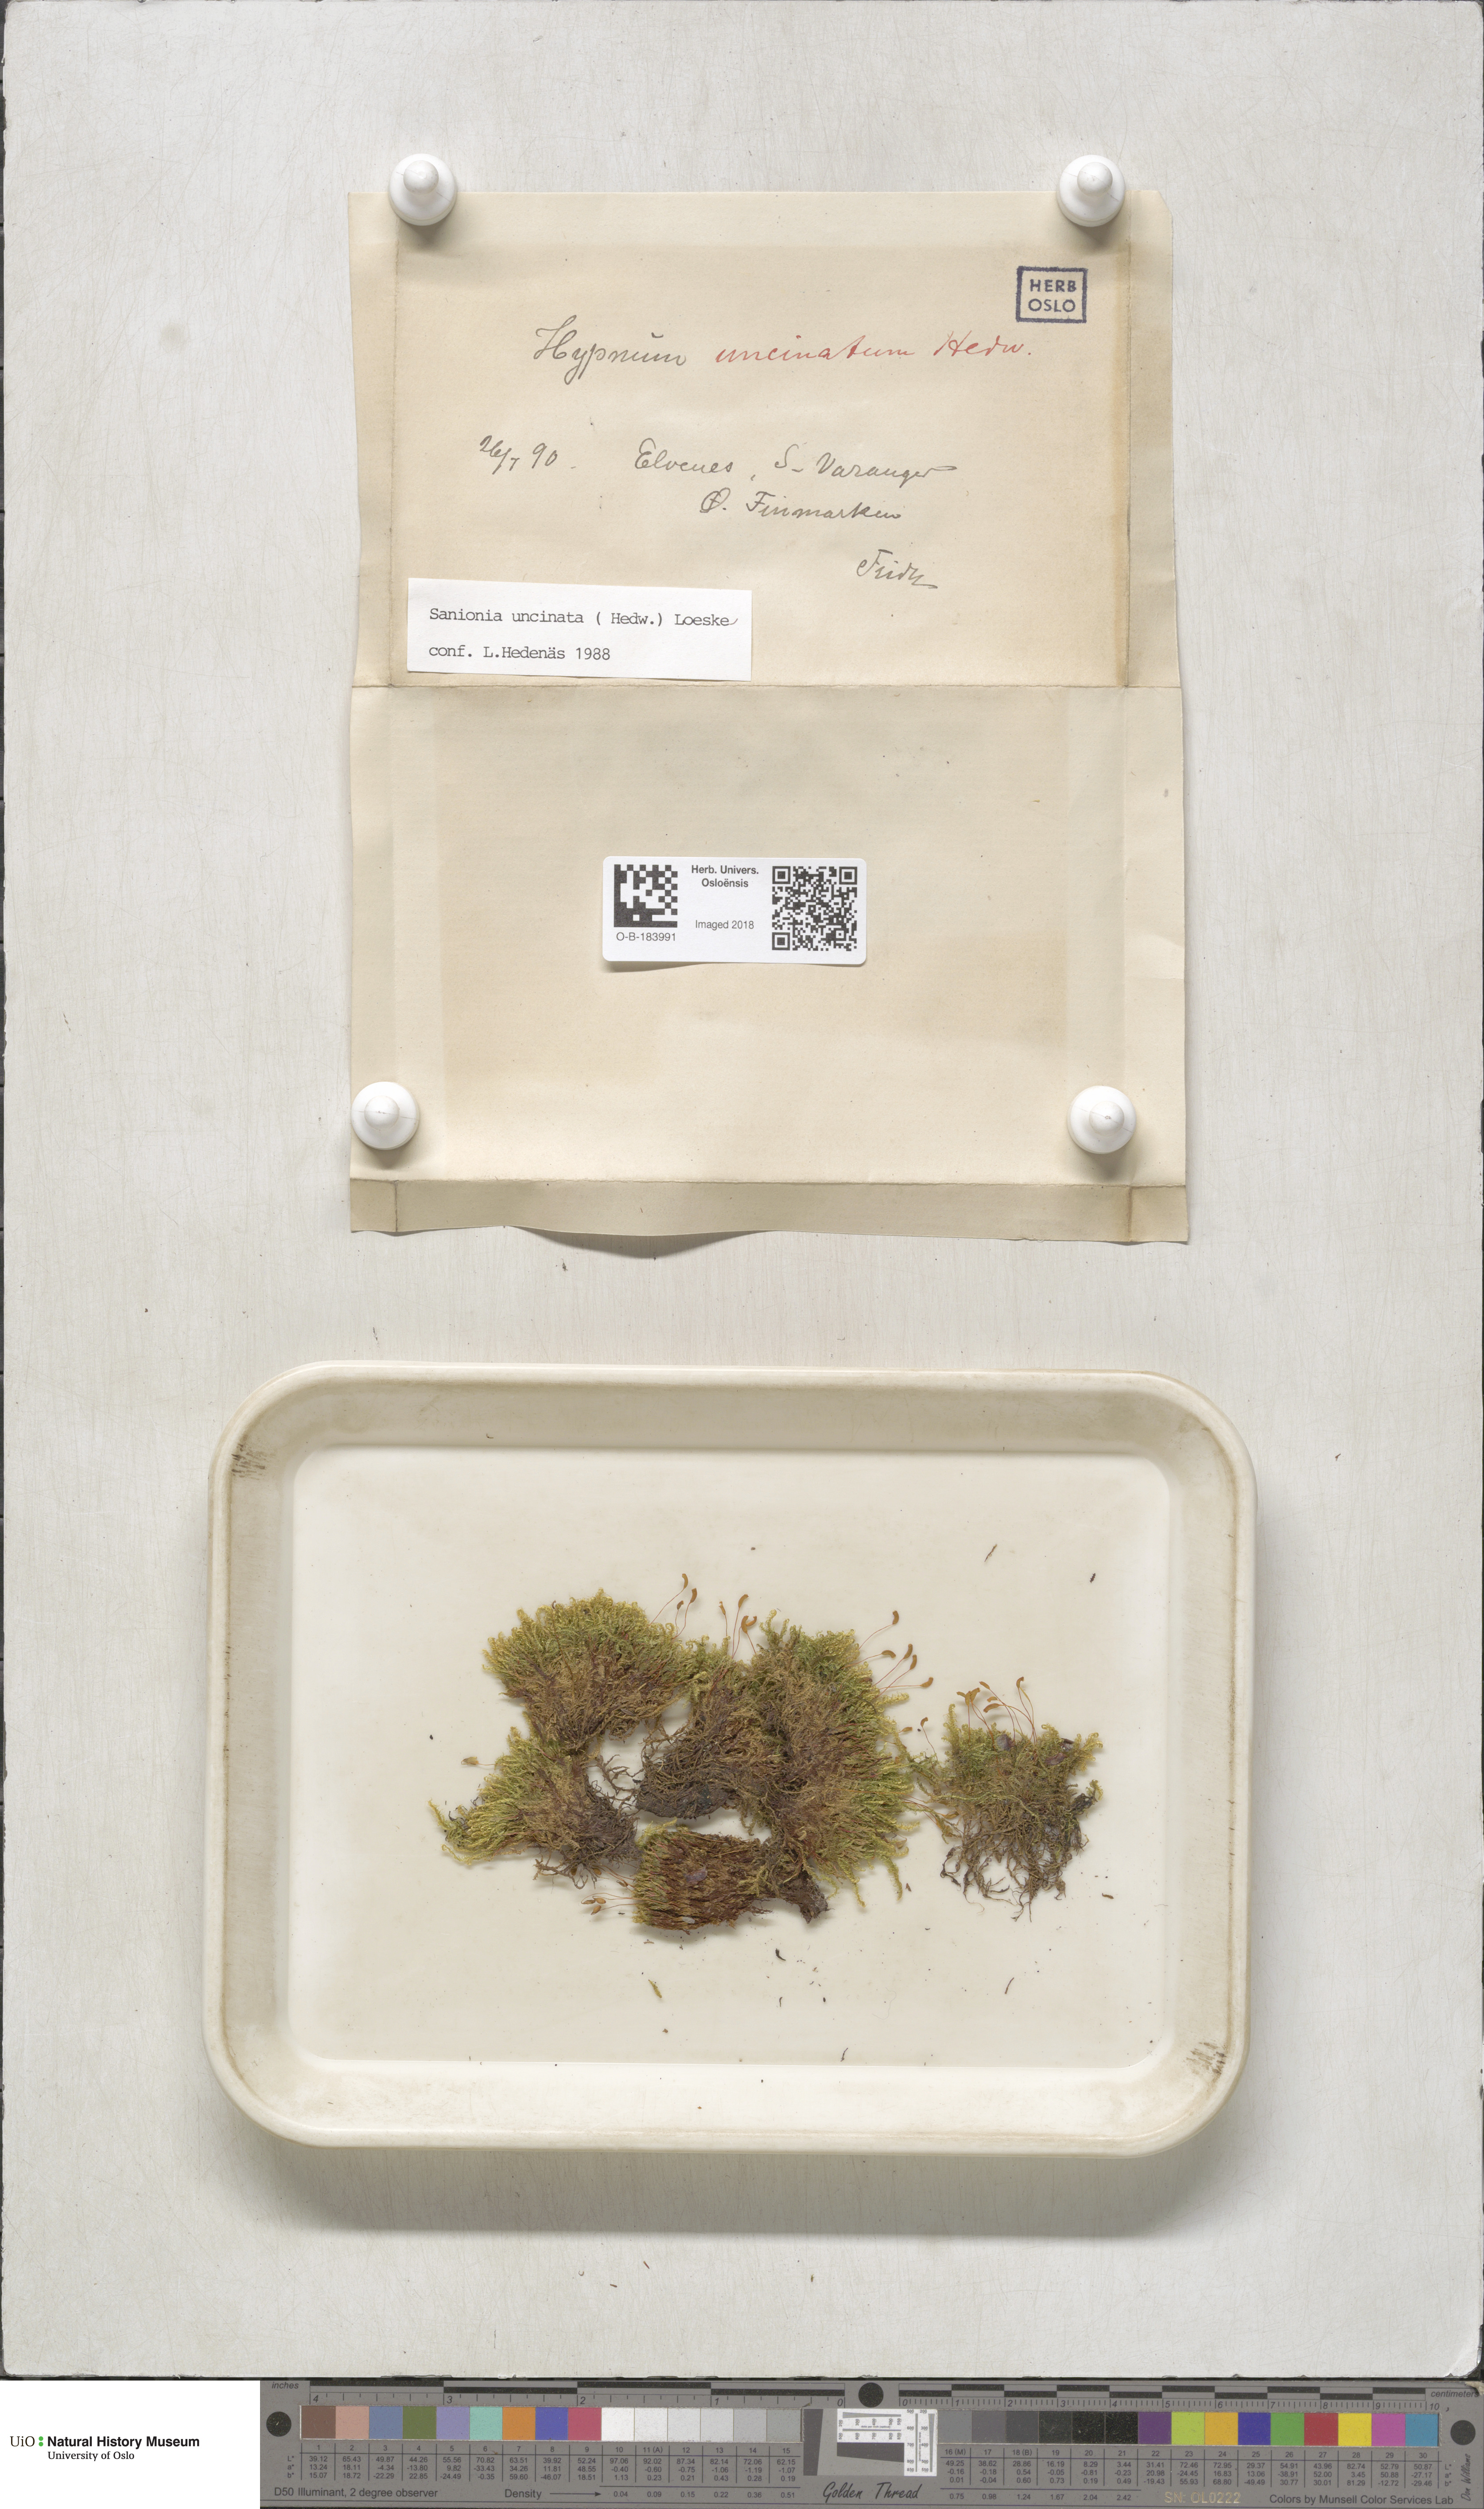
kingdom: Plantae
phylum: Bryophyta
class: Bryopsida
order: Hypnales
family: Scorpidiaceae
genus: Sanionia
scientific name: Sanionia uncinata
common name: Sickle moss
